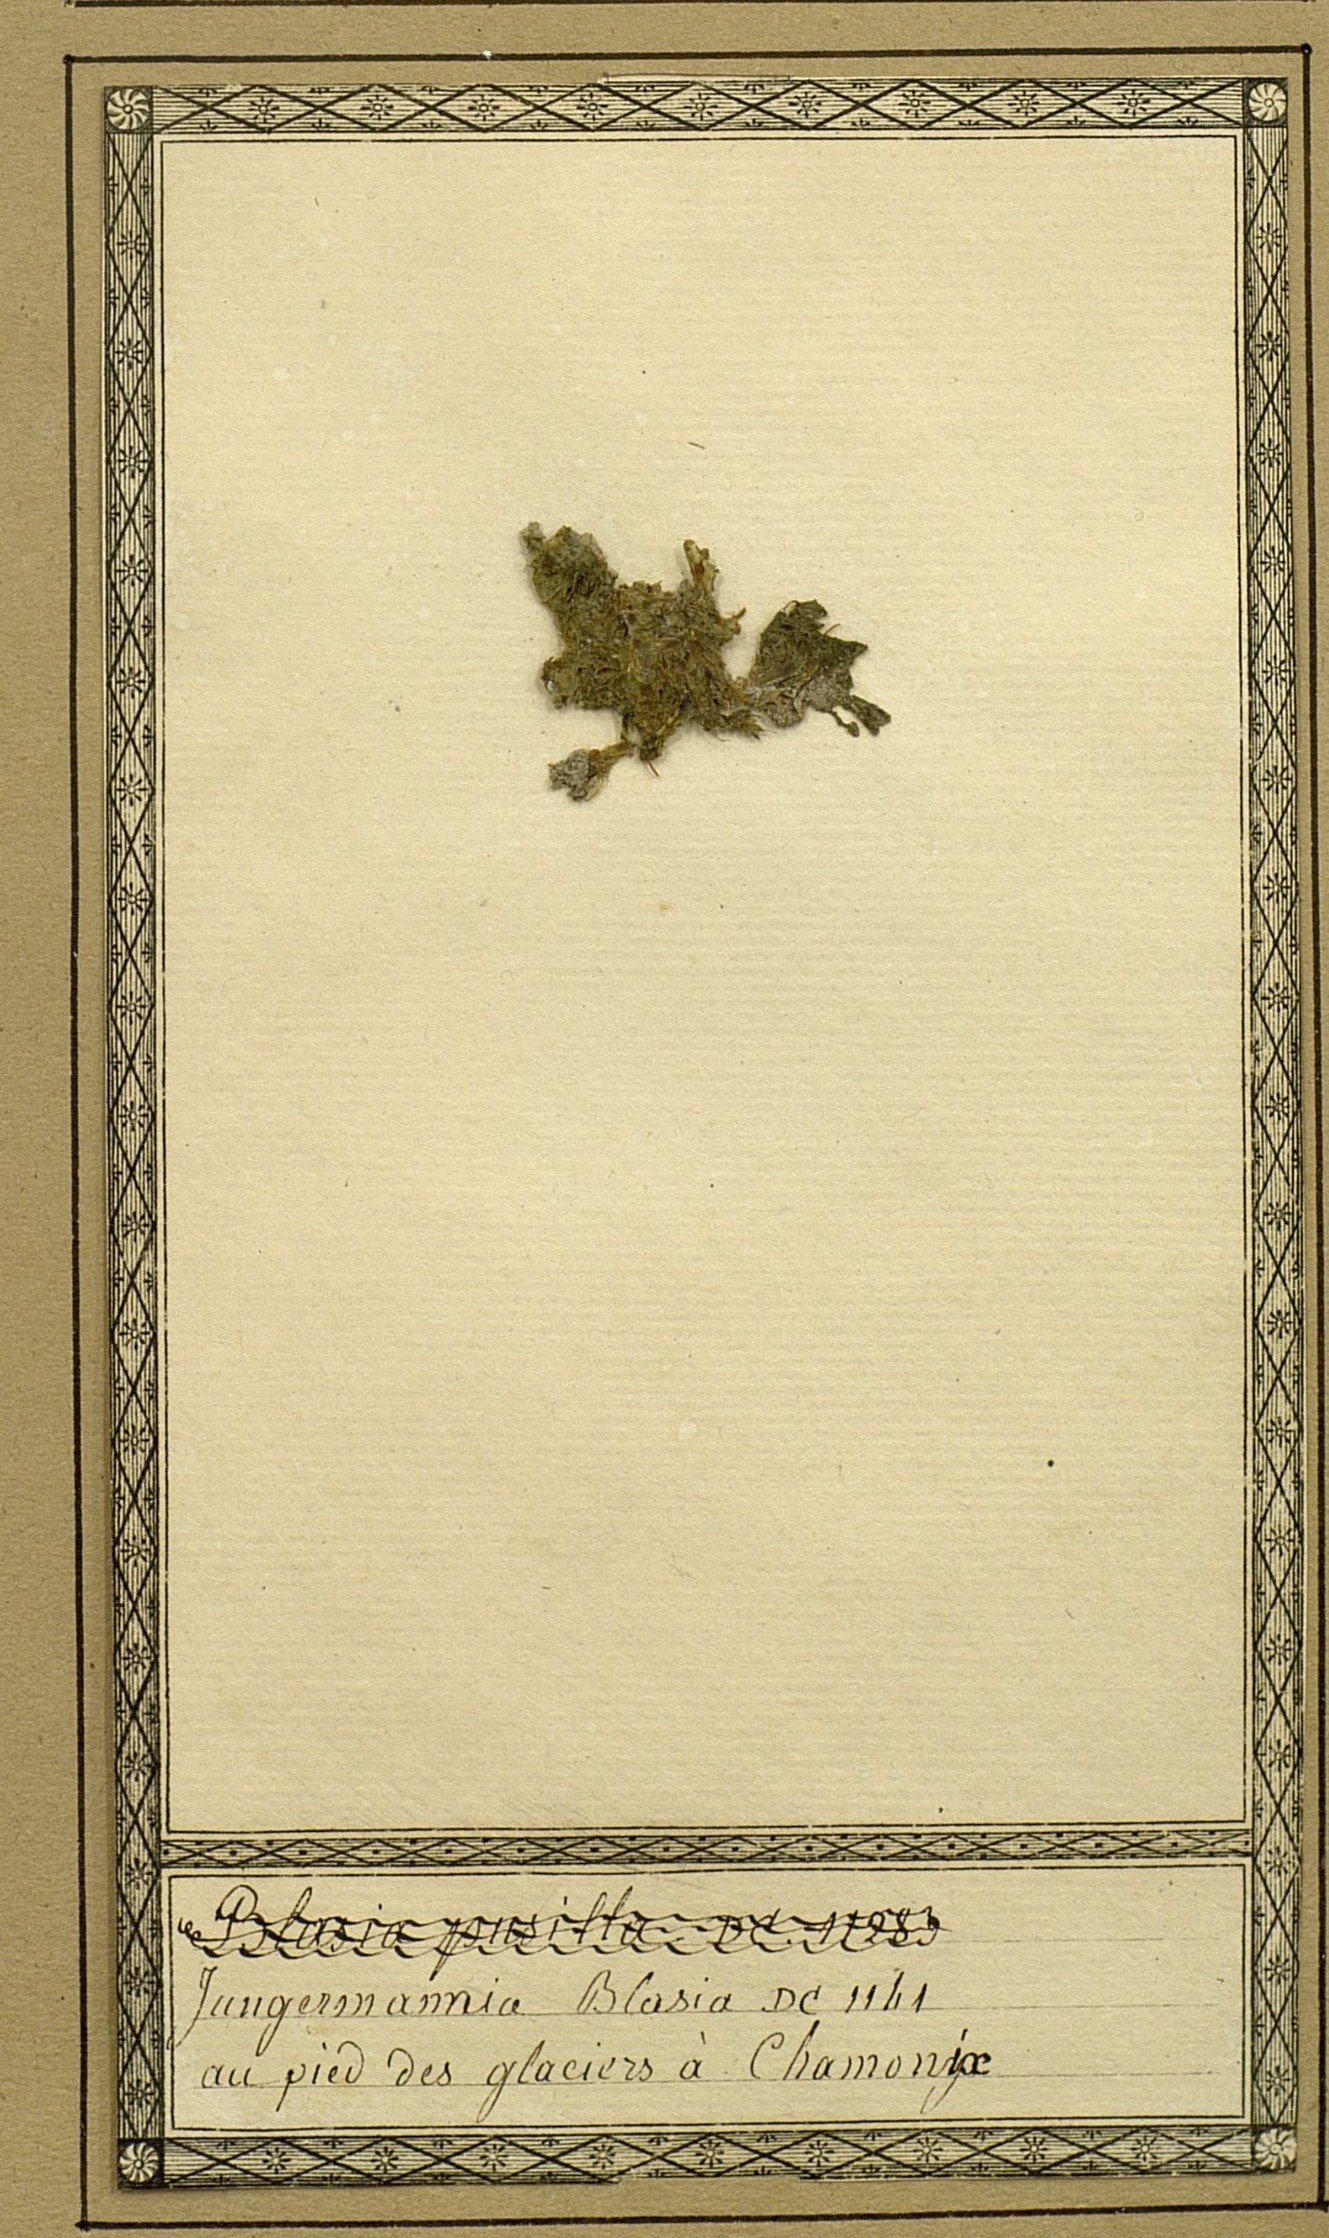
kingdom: Plantae
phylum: Marchantiophyta
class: Marchantiopsida
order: Blasiales
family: Blasiaceae
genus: Blasia
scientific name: Blasia pusilla
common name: Common kettlewort
